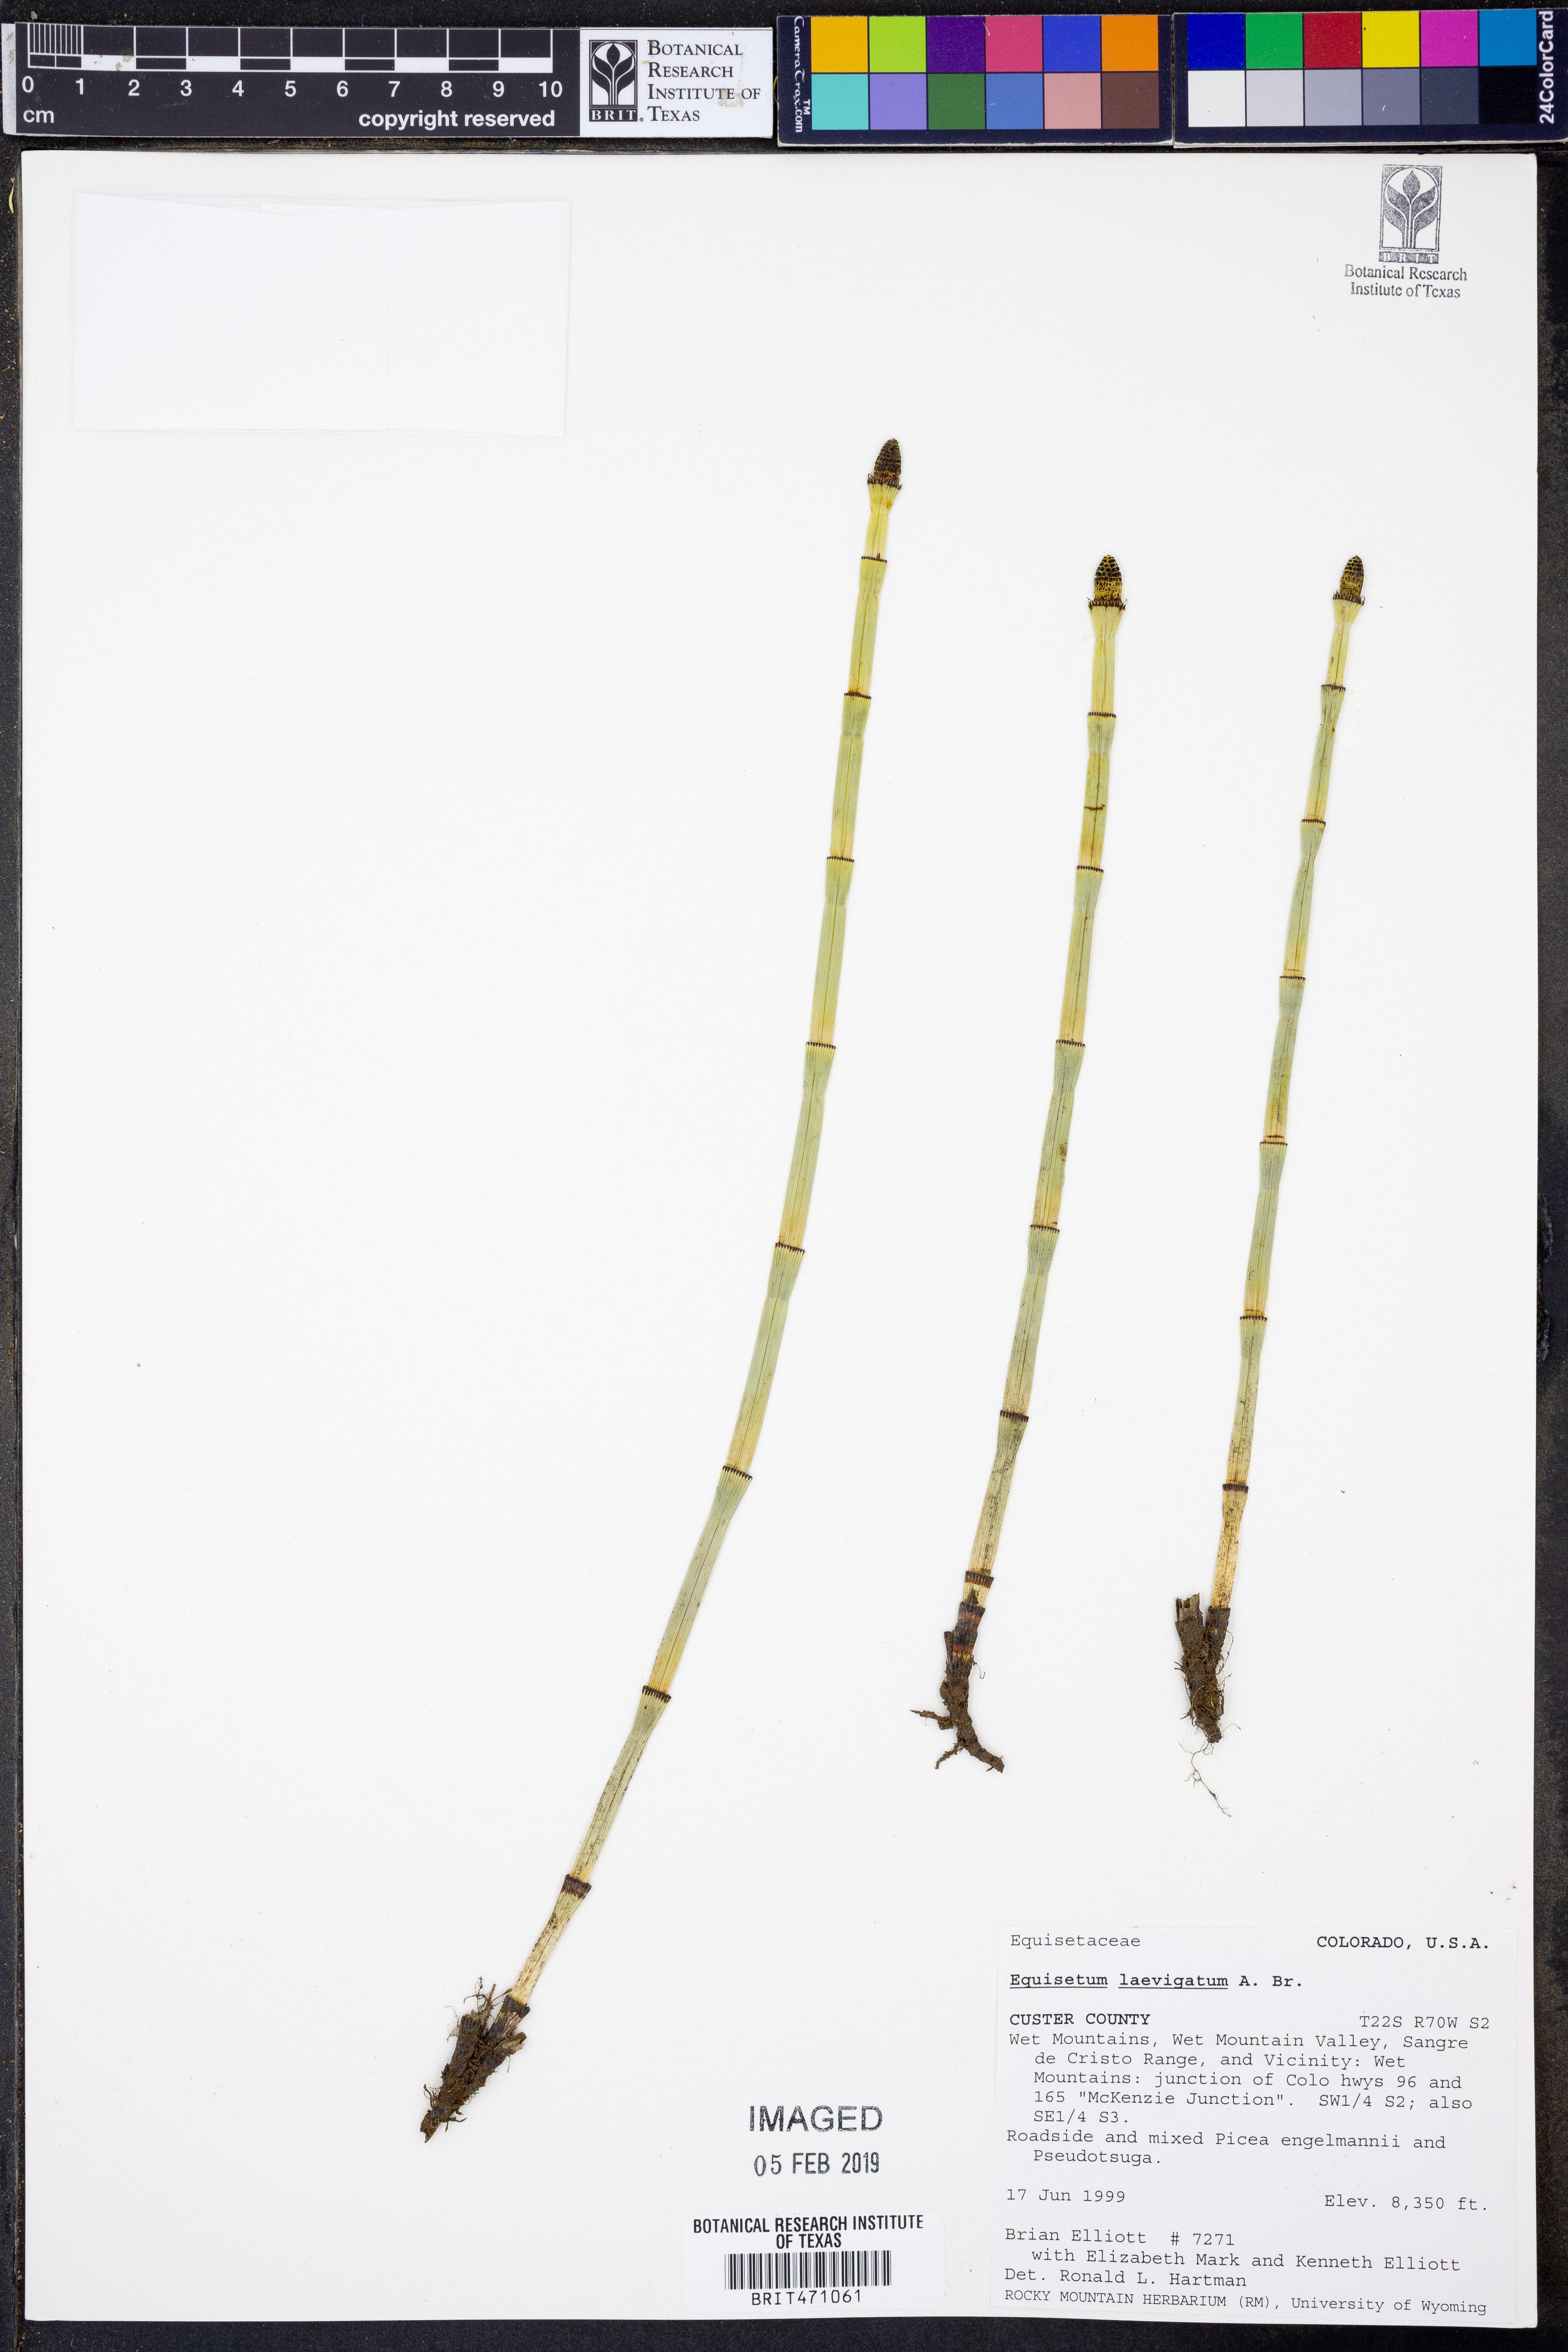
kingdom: Plantae
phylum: Tracheophyta
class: Polypodiopsida
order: Equisetales
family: Equisetaceae
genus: Equisetum
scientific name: Equisetum laevigatum
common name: Smooth scouring-rush
